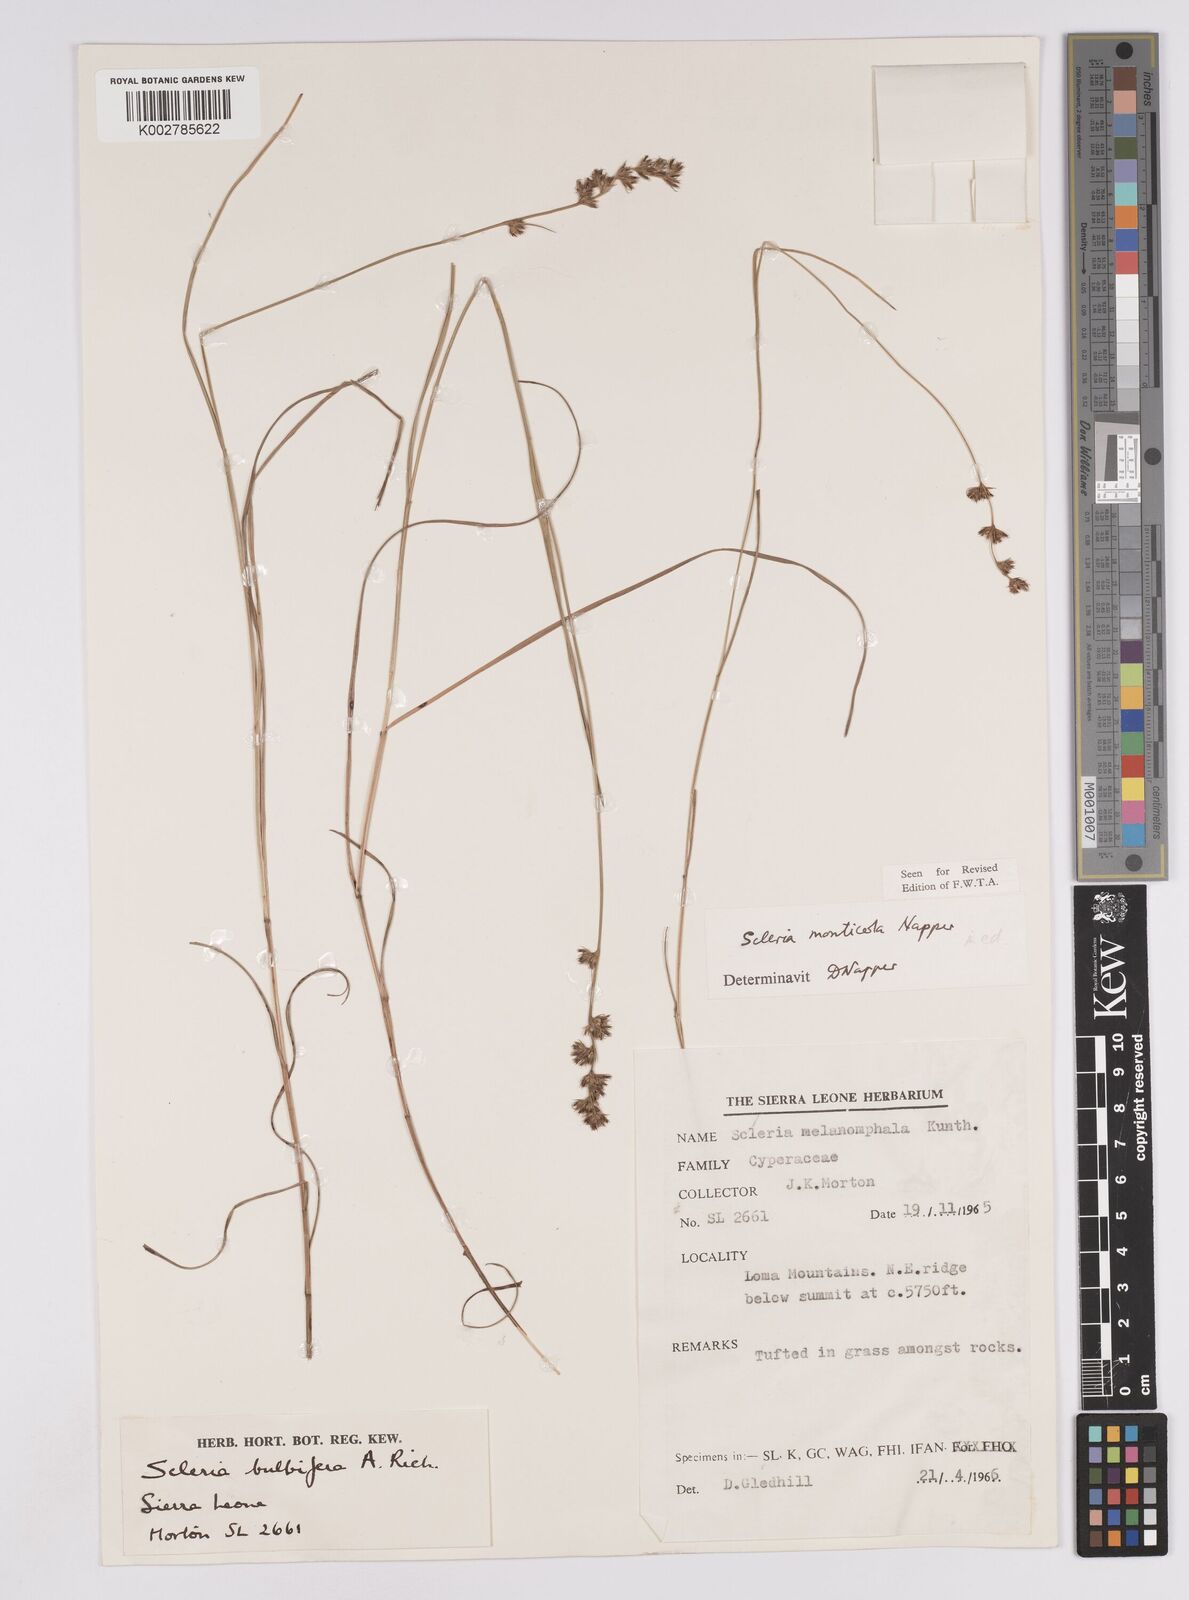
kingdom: Plantae
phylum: Tracheophyta
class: Liliopsida
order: Poales
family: Cyperaceae
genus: Scleria
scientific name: Scleria monticola
